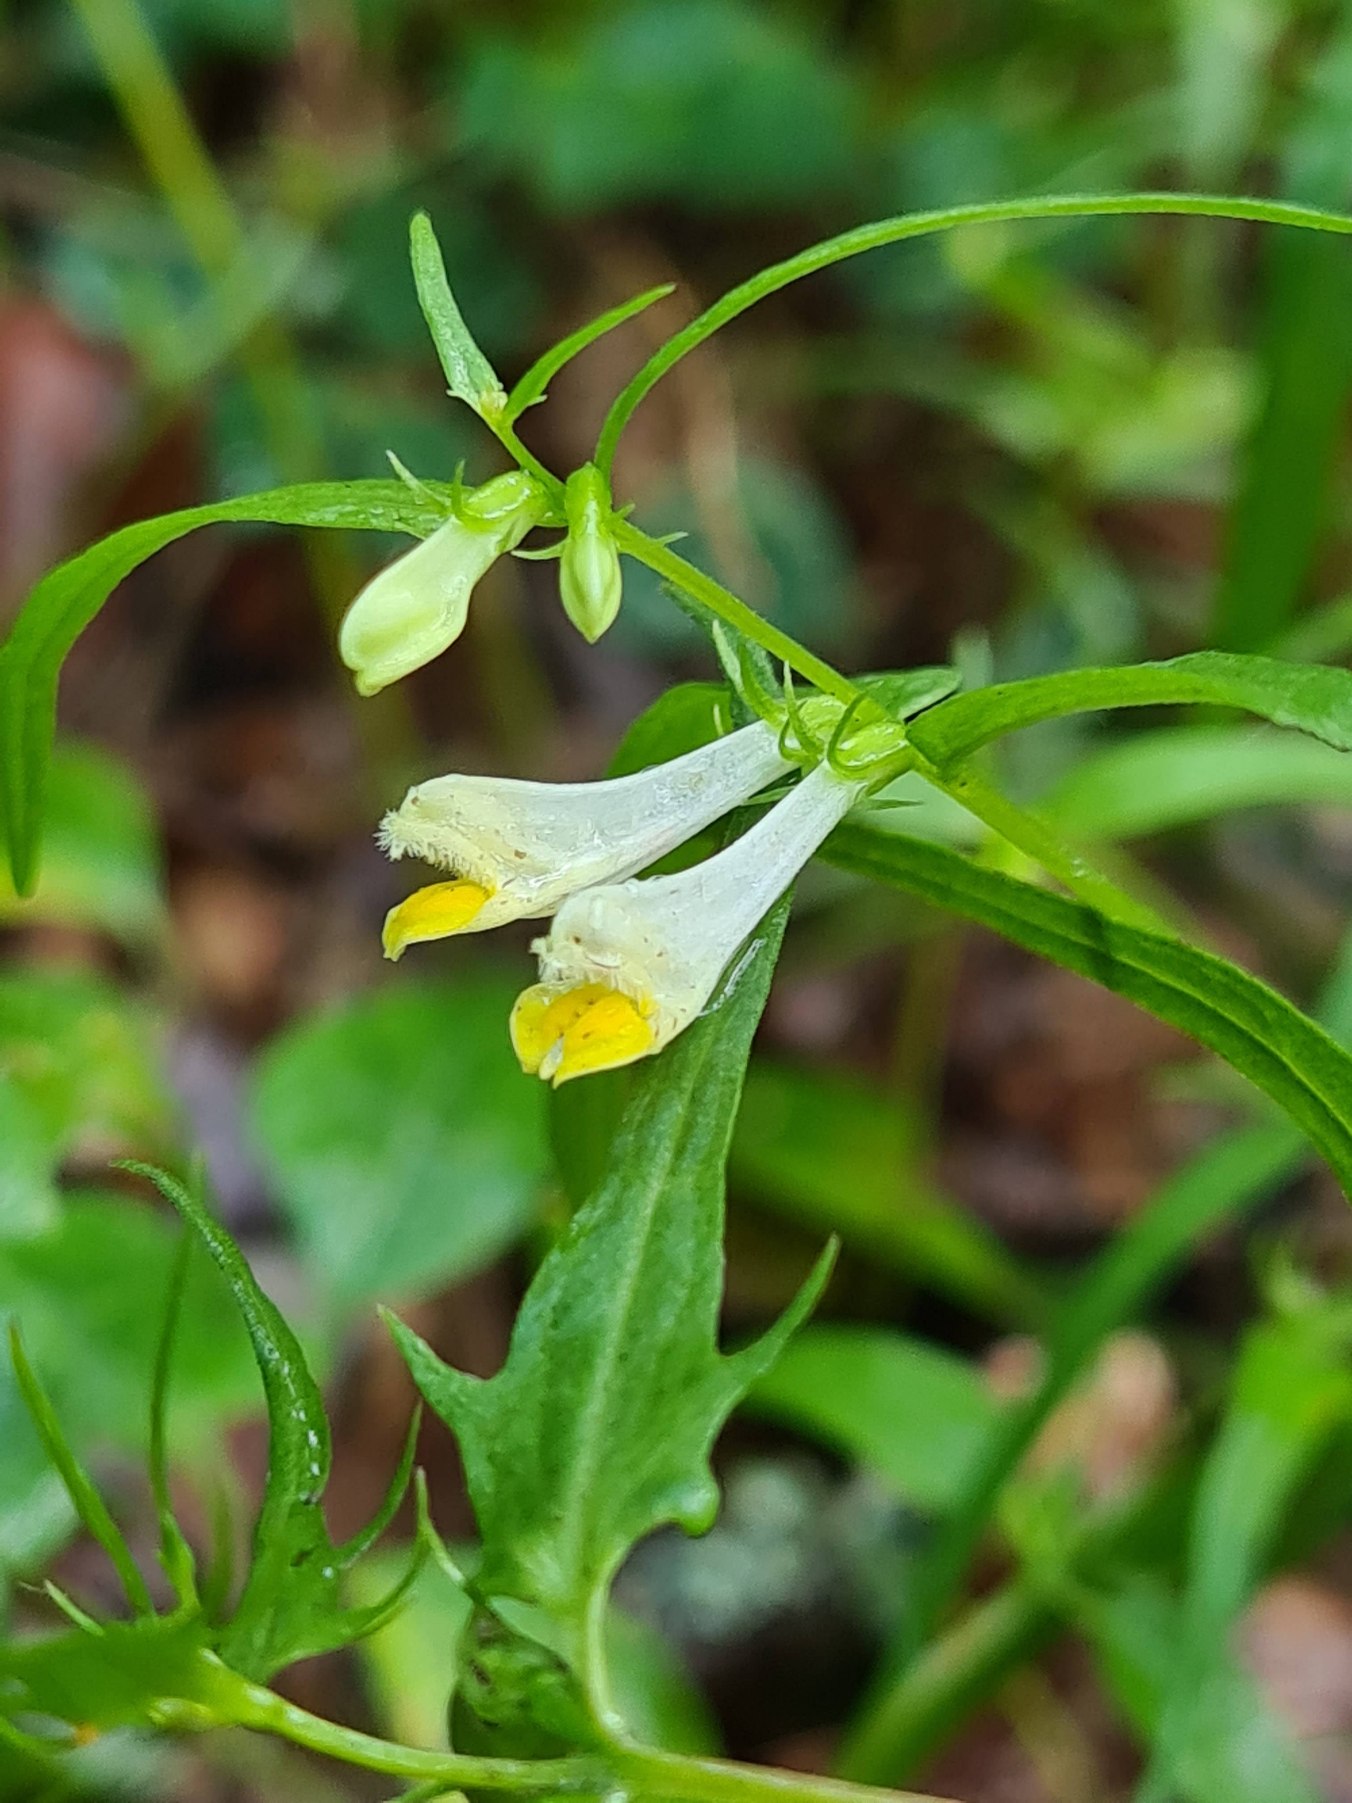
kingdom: Plantae
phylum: Tracheophyta
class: Magnoliopsida
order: Lamiales
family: Orobanchaceae
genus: Melampyrum
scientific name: Melampyrum pratense
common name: Almindelig kohvede
